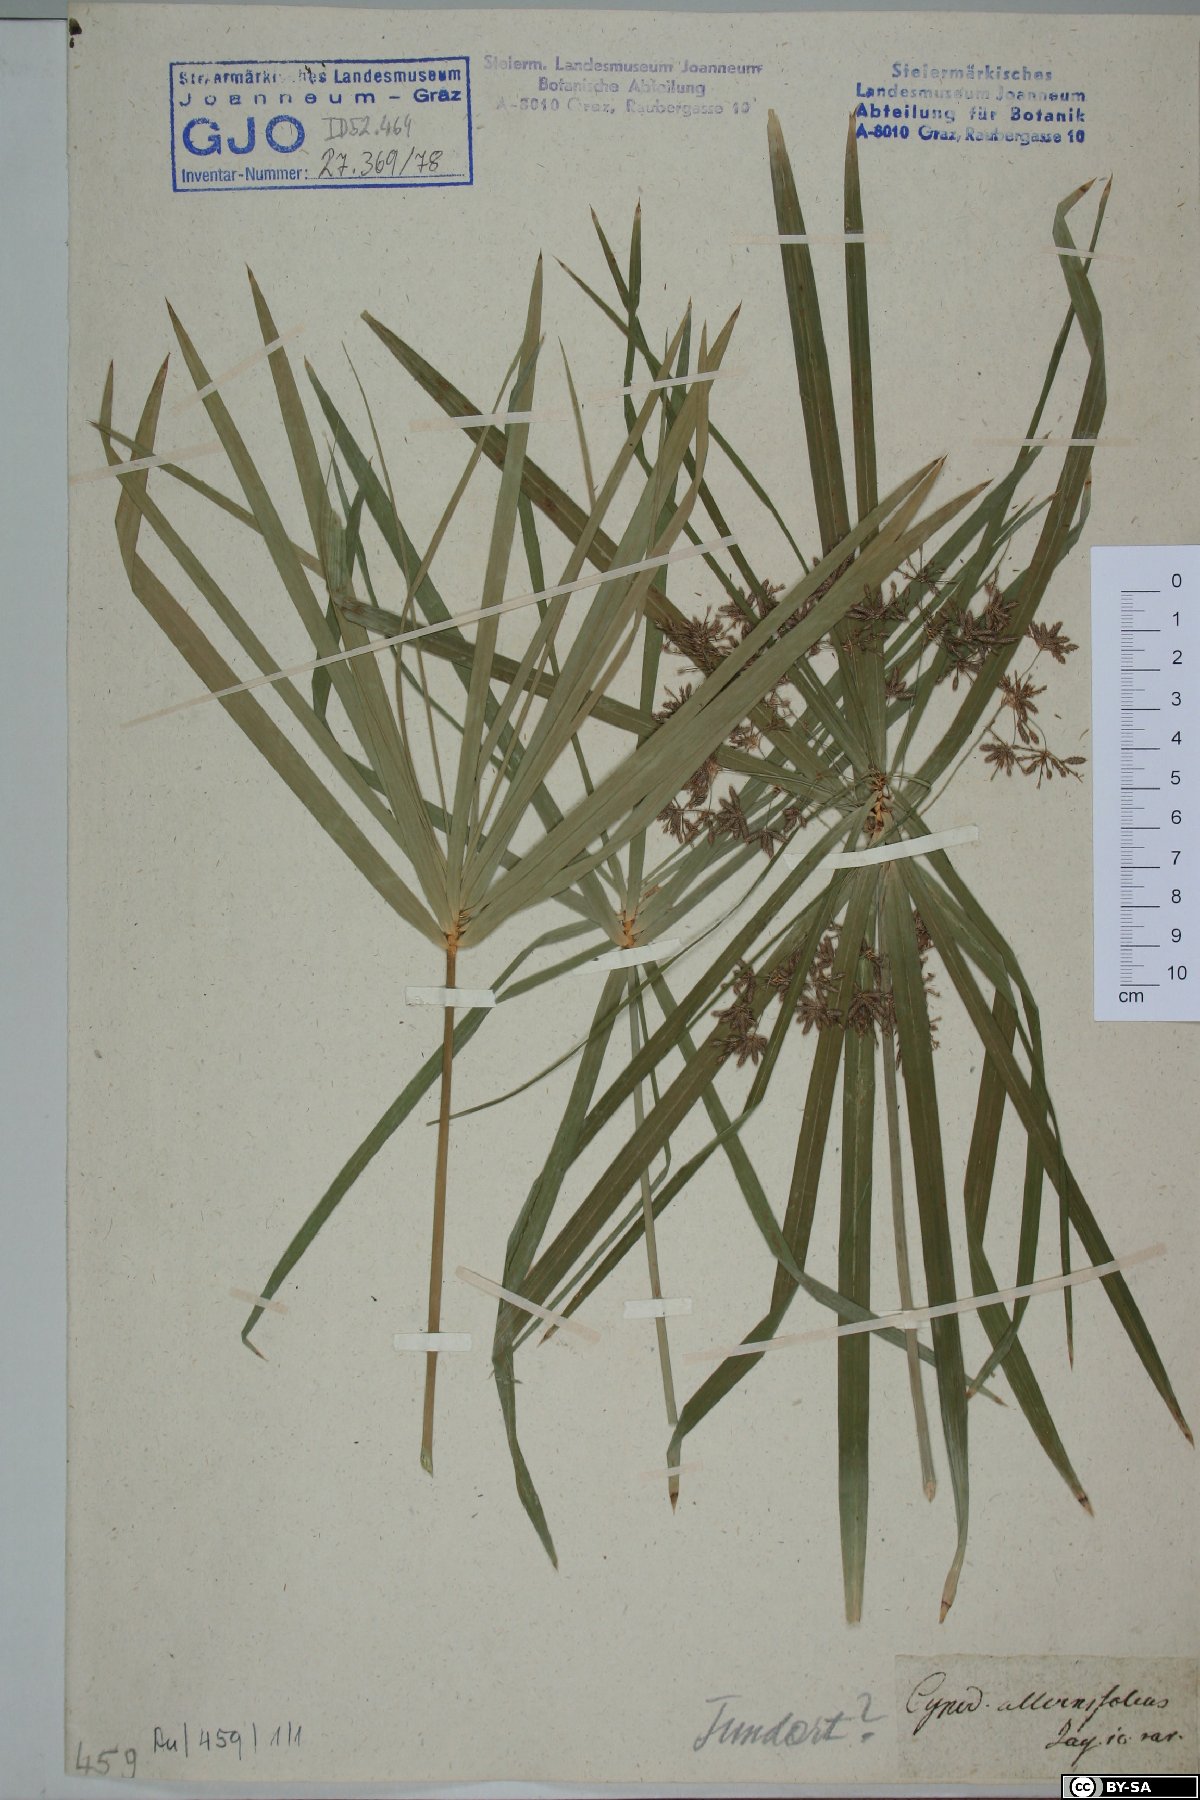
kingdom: Plantae
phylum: Tracheophyta
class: Liliopsida
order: Poales
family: Cyperaceae
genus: Cyperus
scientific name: Cyperus alternifolius
